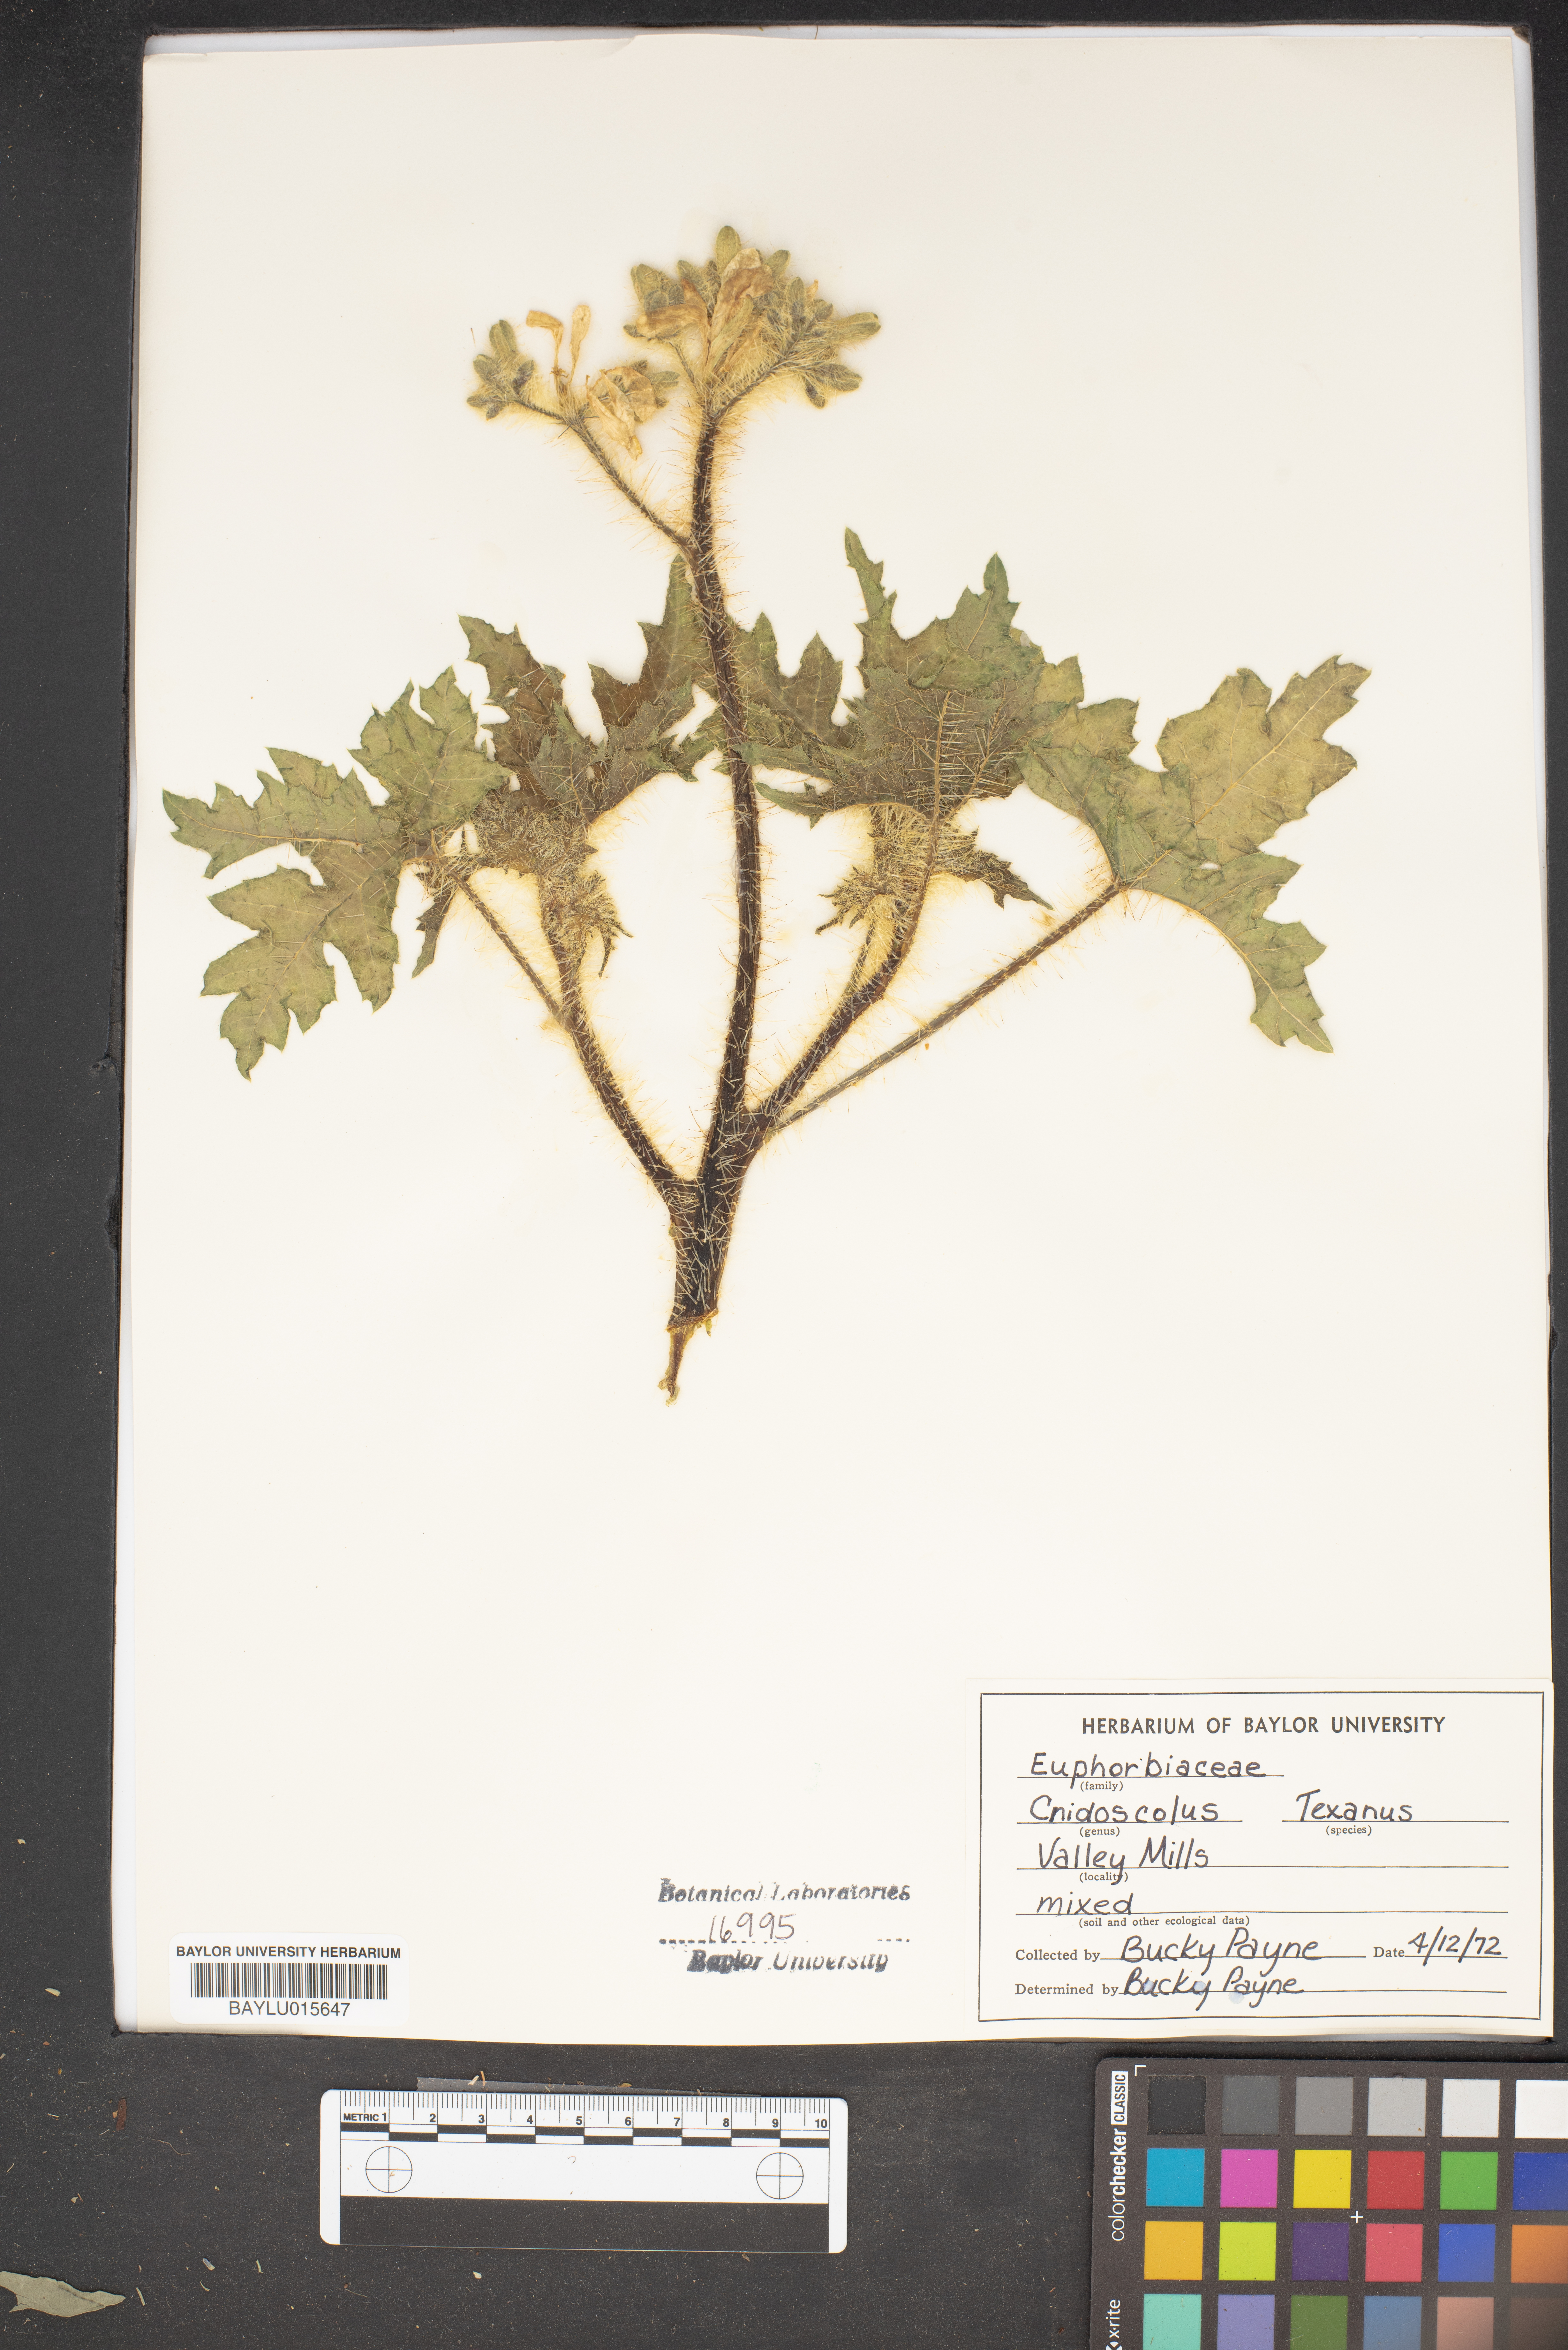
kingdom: Plantae
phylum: Tracheophyta
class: Magnoliopsida
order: Malpighiales
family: Euphorbiaceae
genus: Cnidoscolus
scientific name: Cnidoscolus texanus
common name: Texas bull-nettle
